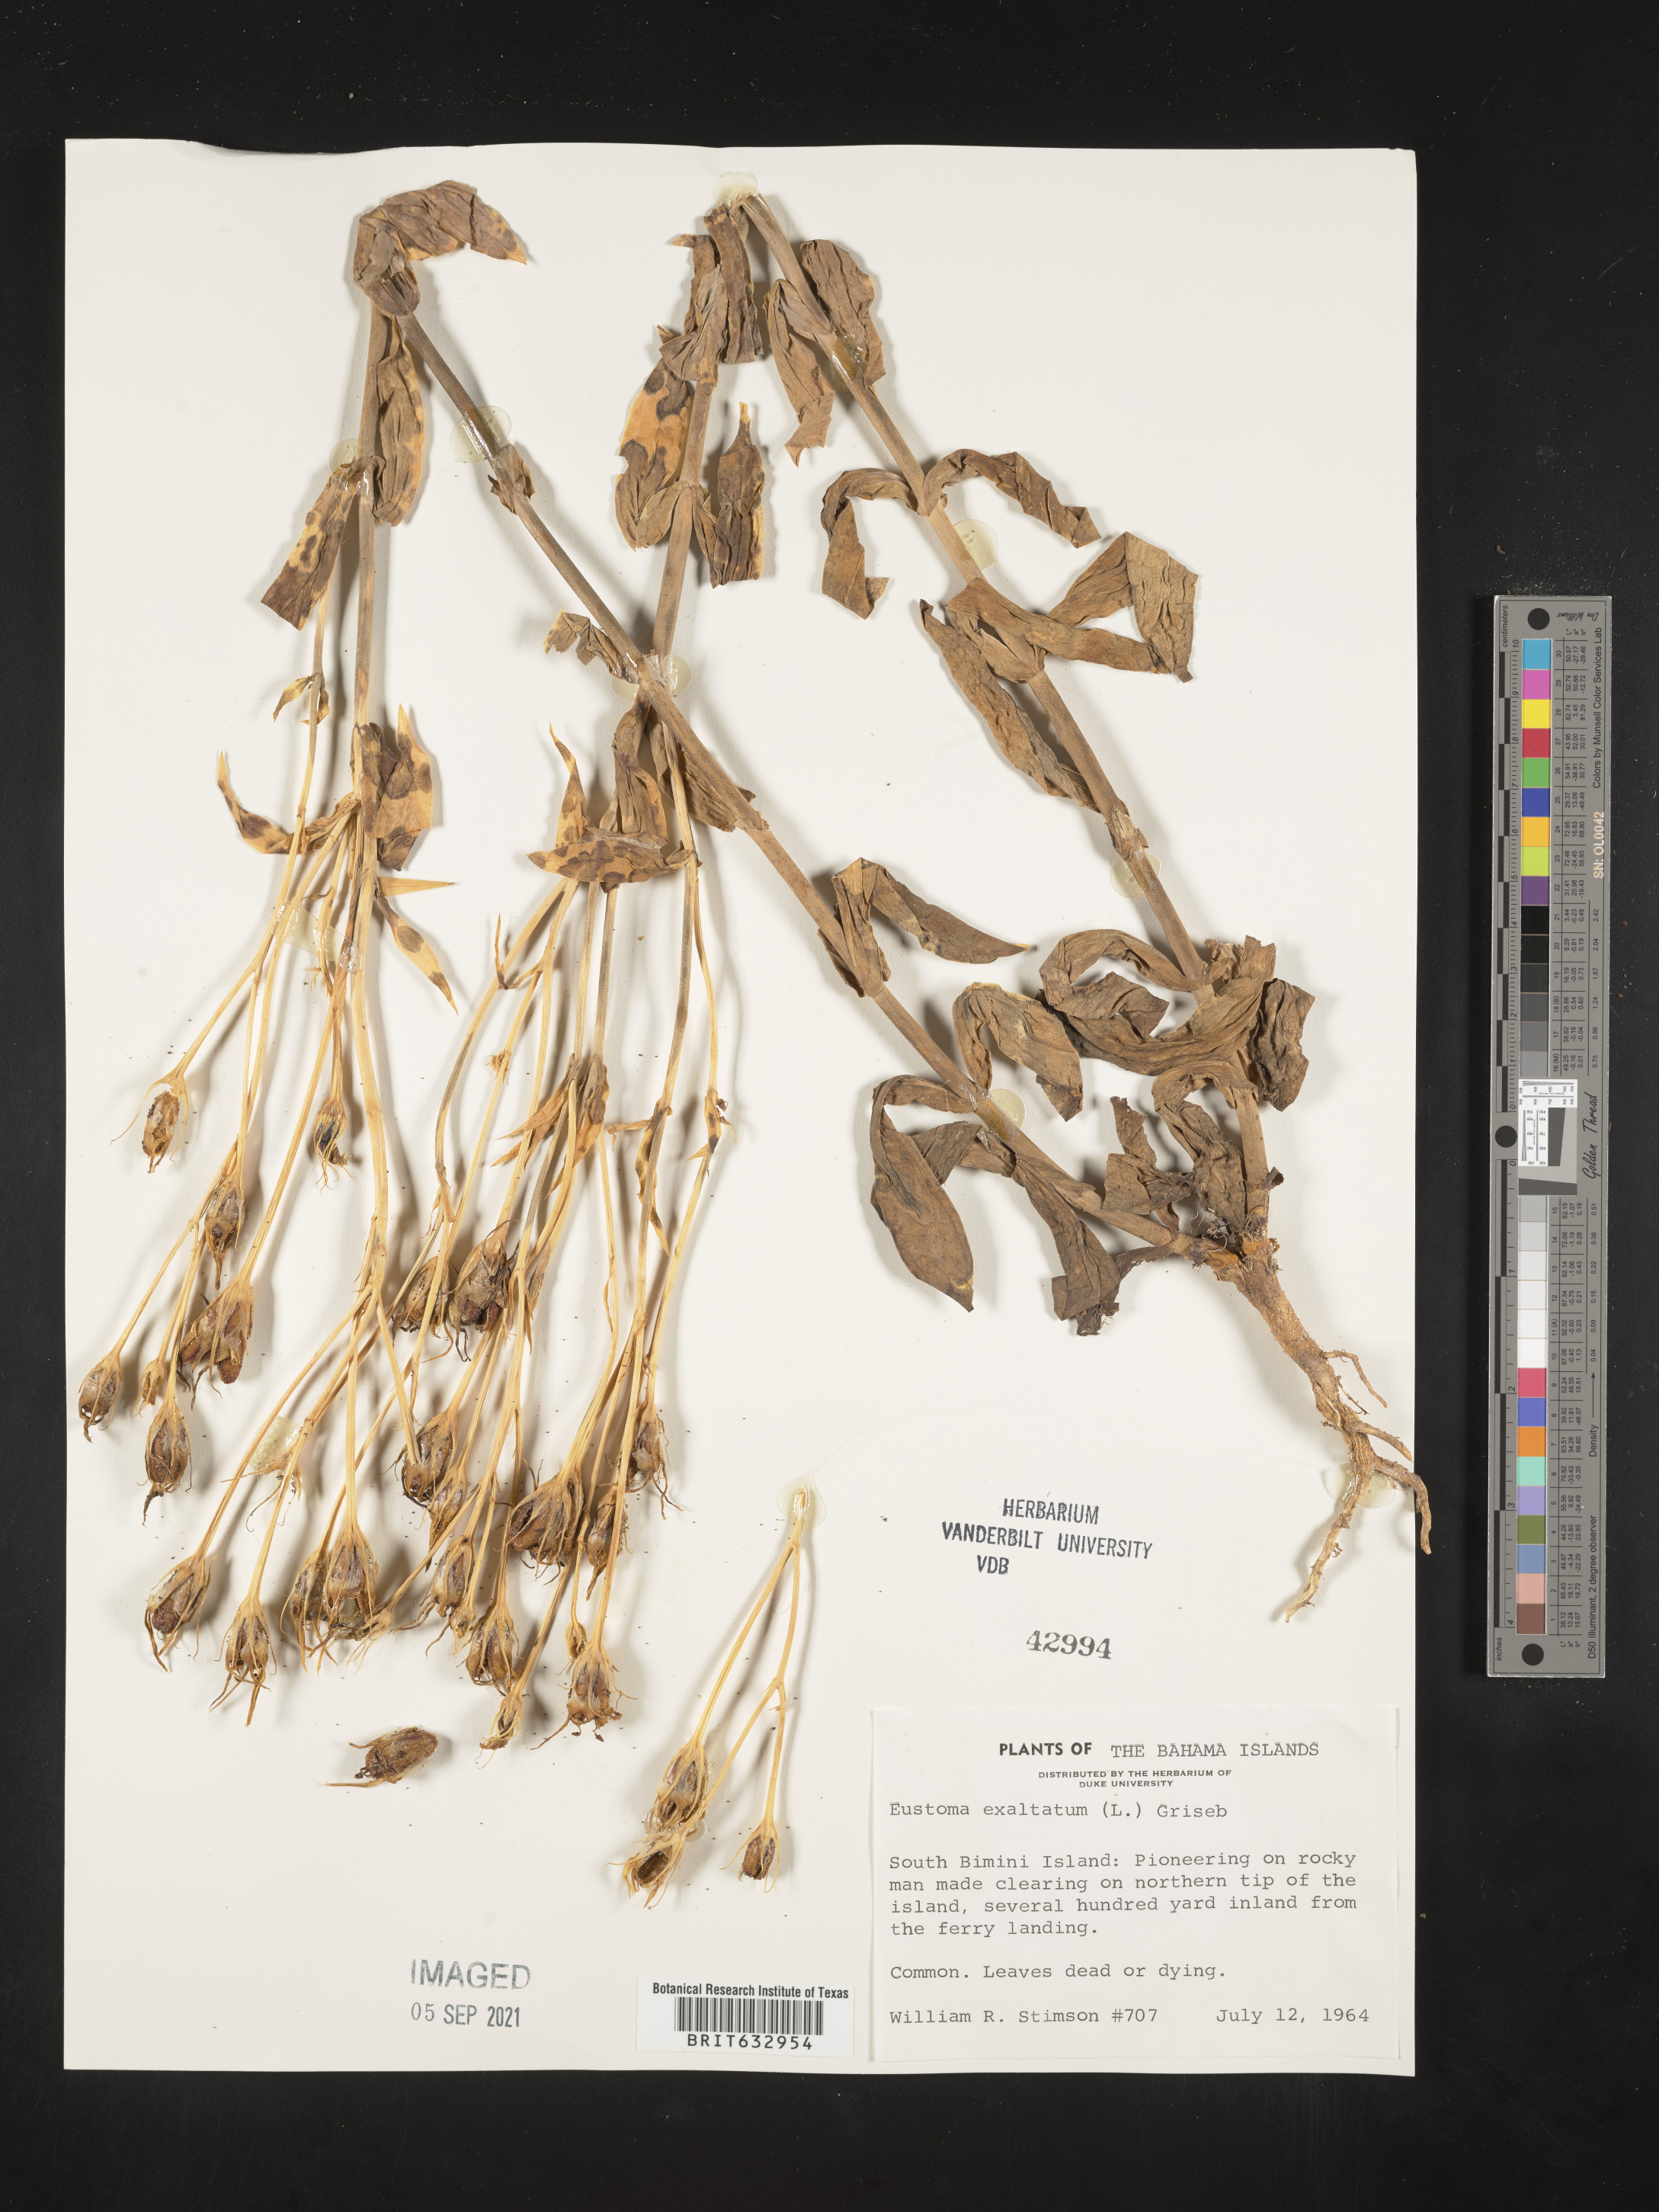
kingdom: Plantae
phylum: Tracheophyta
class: Magnoliopsida
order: Gentianales
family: Gentianaceae
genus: Eustoma
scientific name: Eustoma
